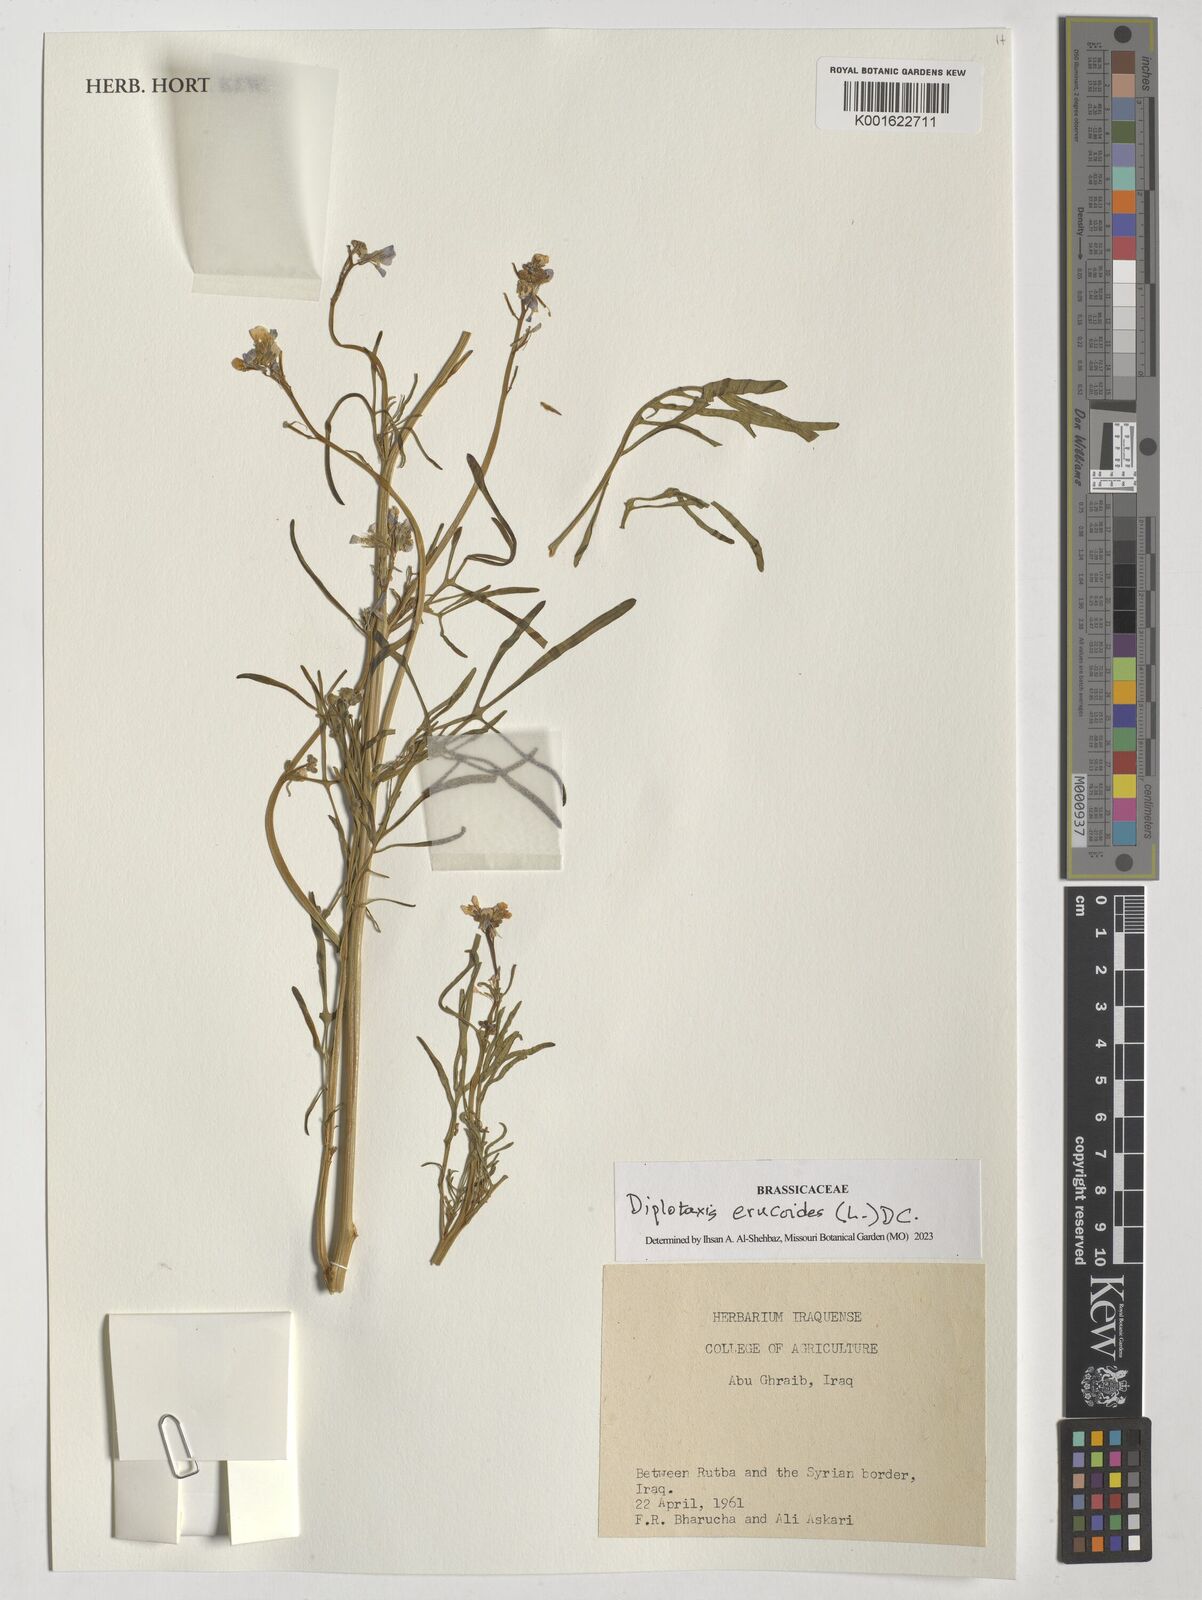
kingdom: Plantae
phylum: Tracheophyta
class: Magnoliopsida
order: Brassicales
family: Brassicaceae
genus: Diplotaxis
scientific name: Diplotaxis erucoides
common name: White rocket
